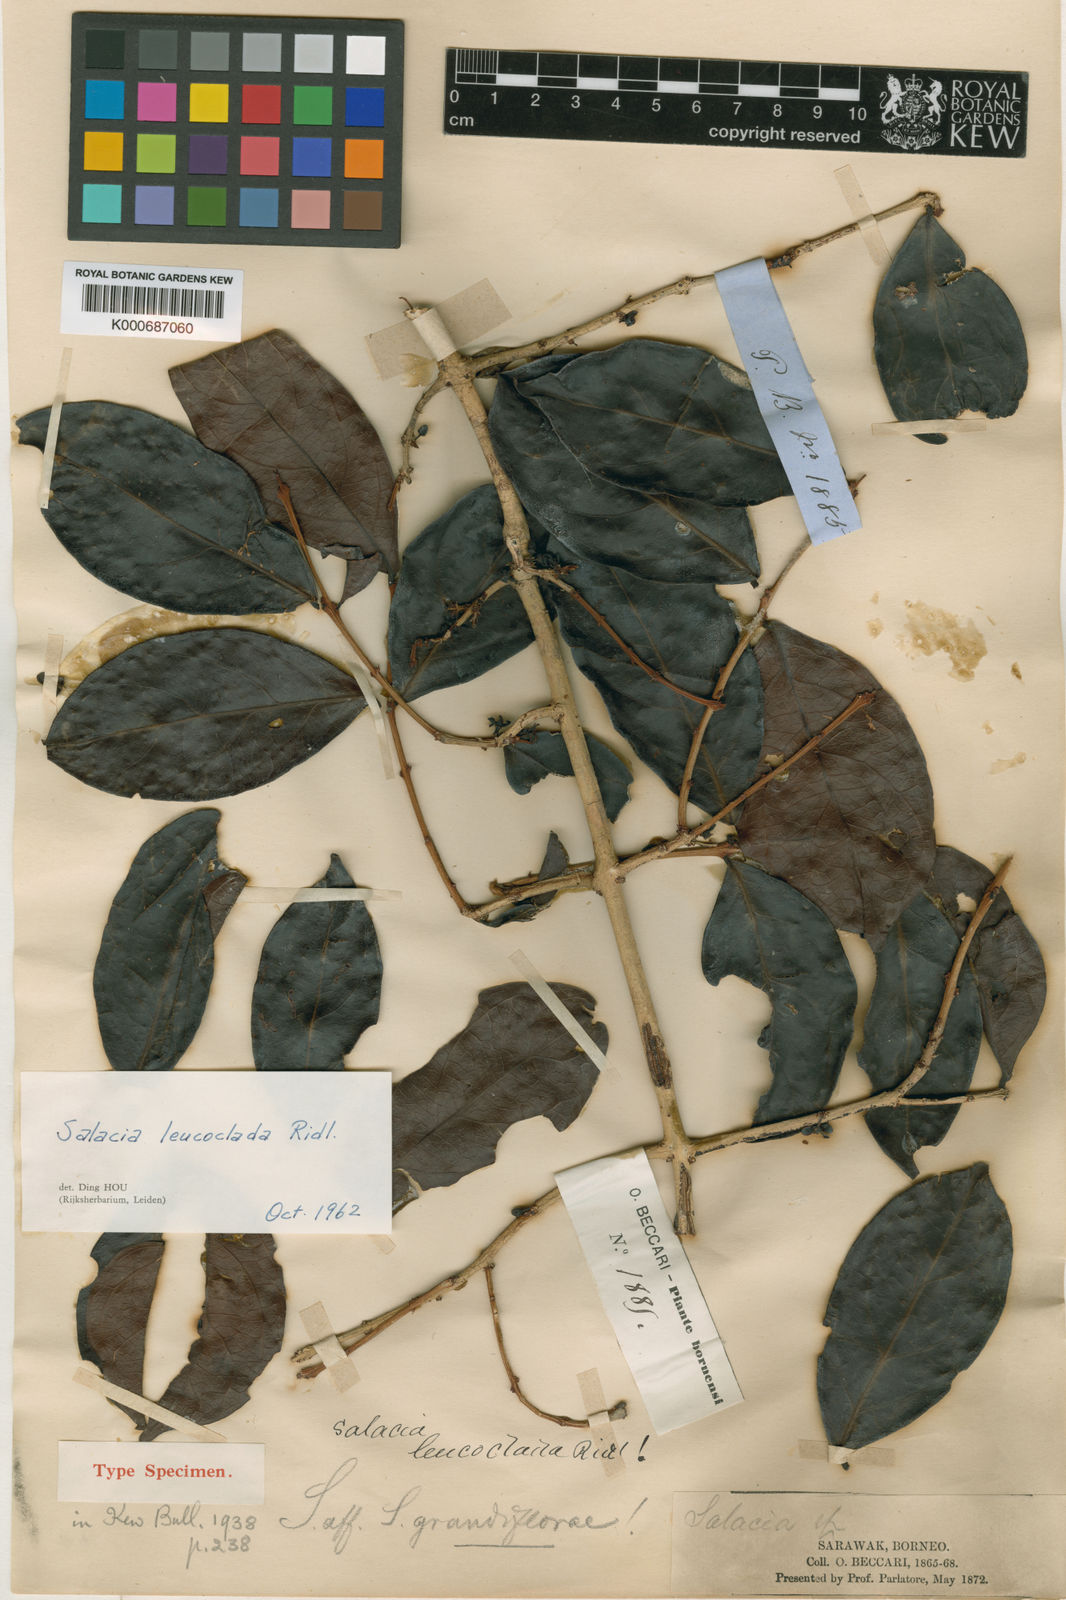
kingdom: Plantae
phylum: Tracheophyta
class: Magnoliopsida
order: Celastrales
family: Celastraceae
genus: Salacia
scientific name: Salacia leucoclada
